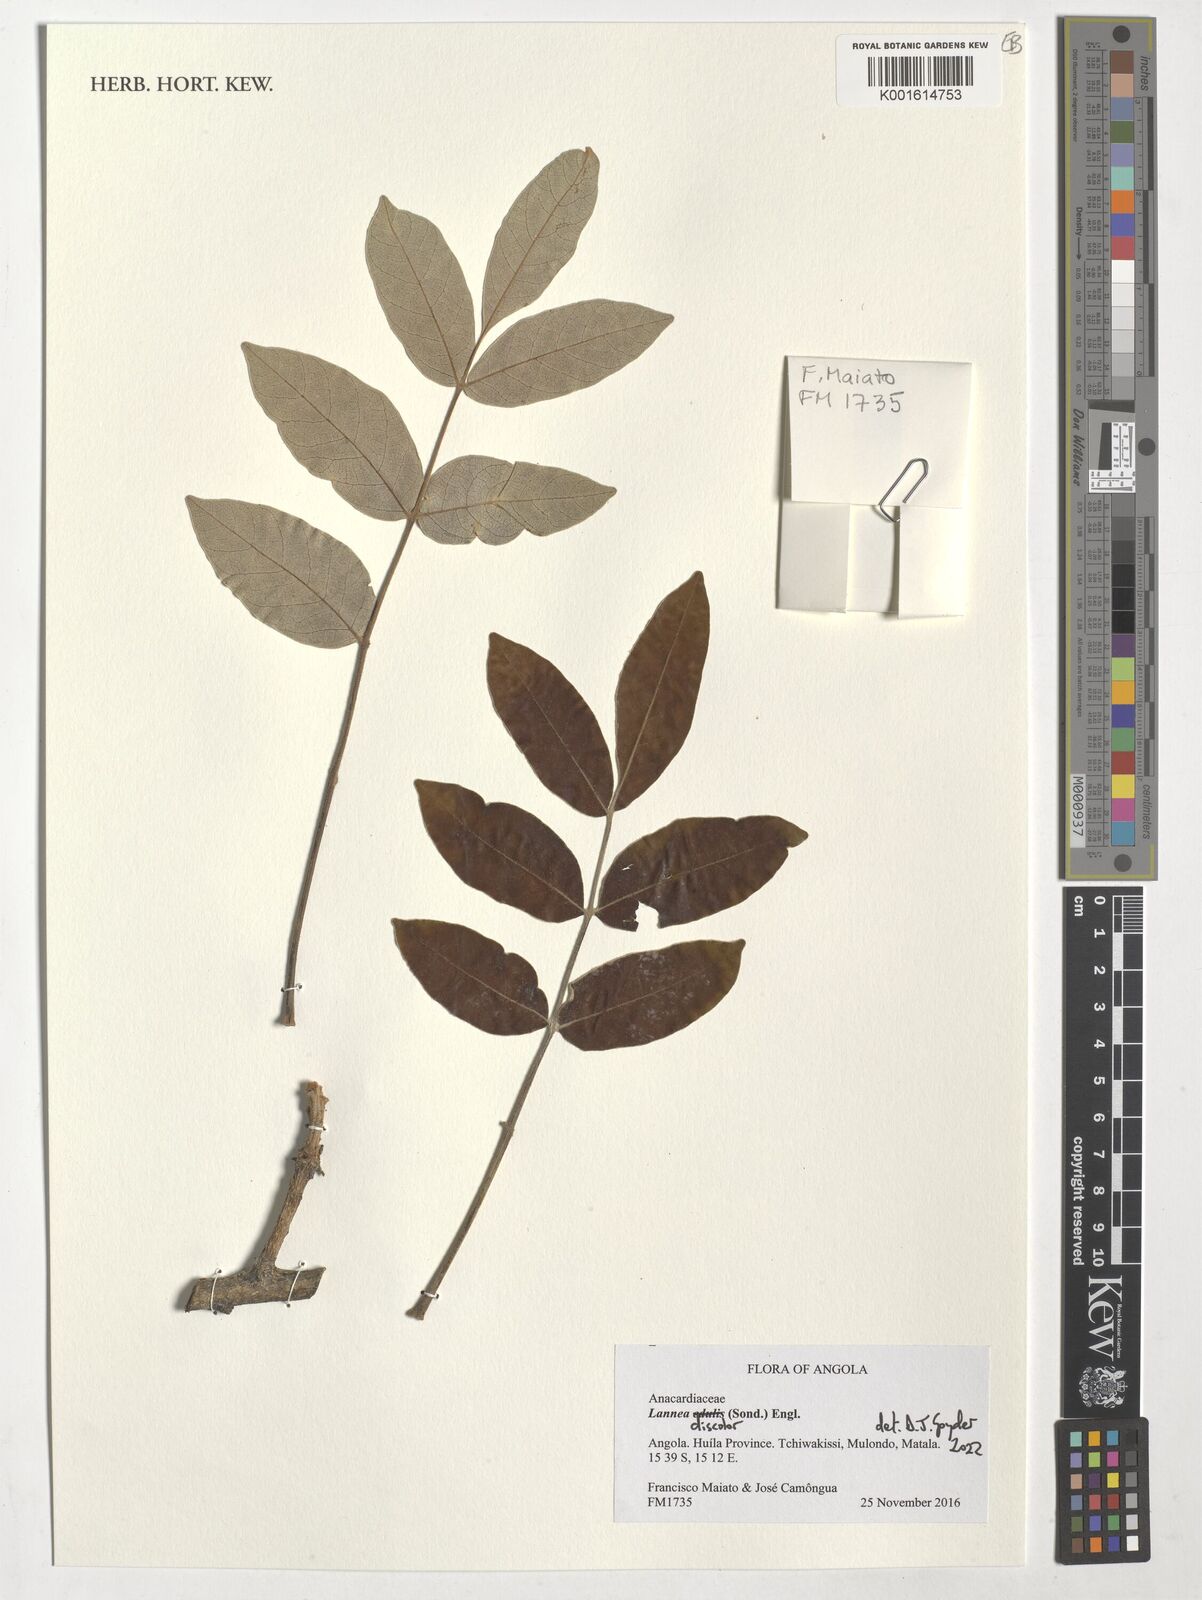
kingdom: Plantae
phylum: Tracheophyta
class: Magnoliopsida
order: Sapindales
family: Anacardiaceae
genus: Lannea
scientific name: Lannea discolor
